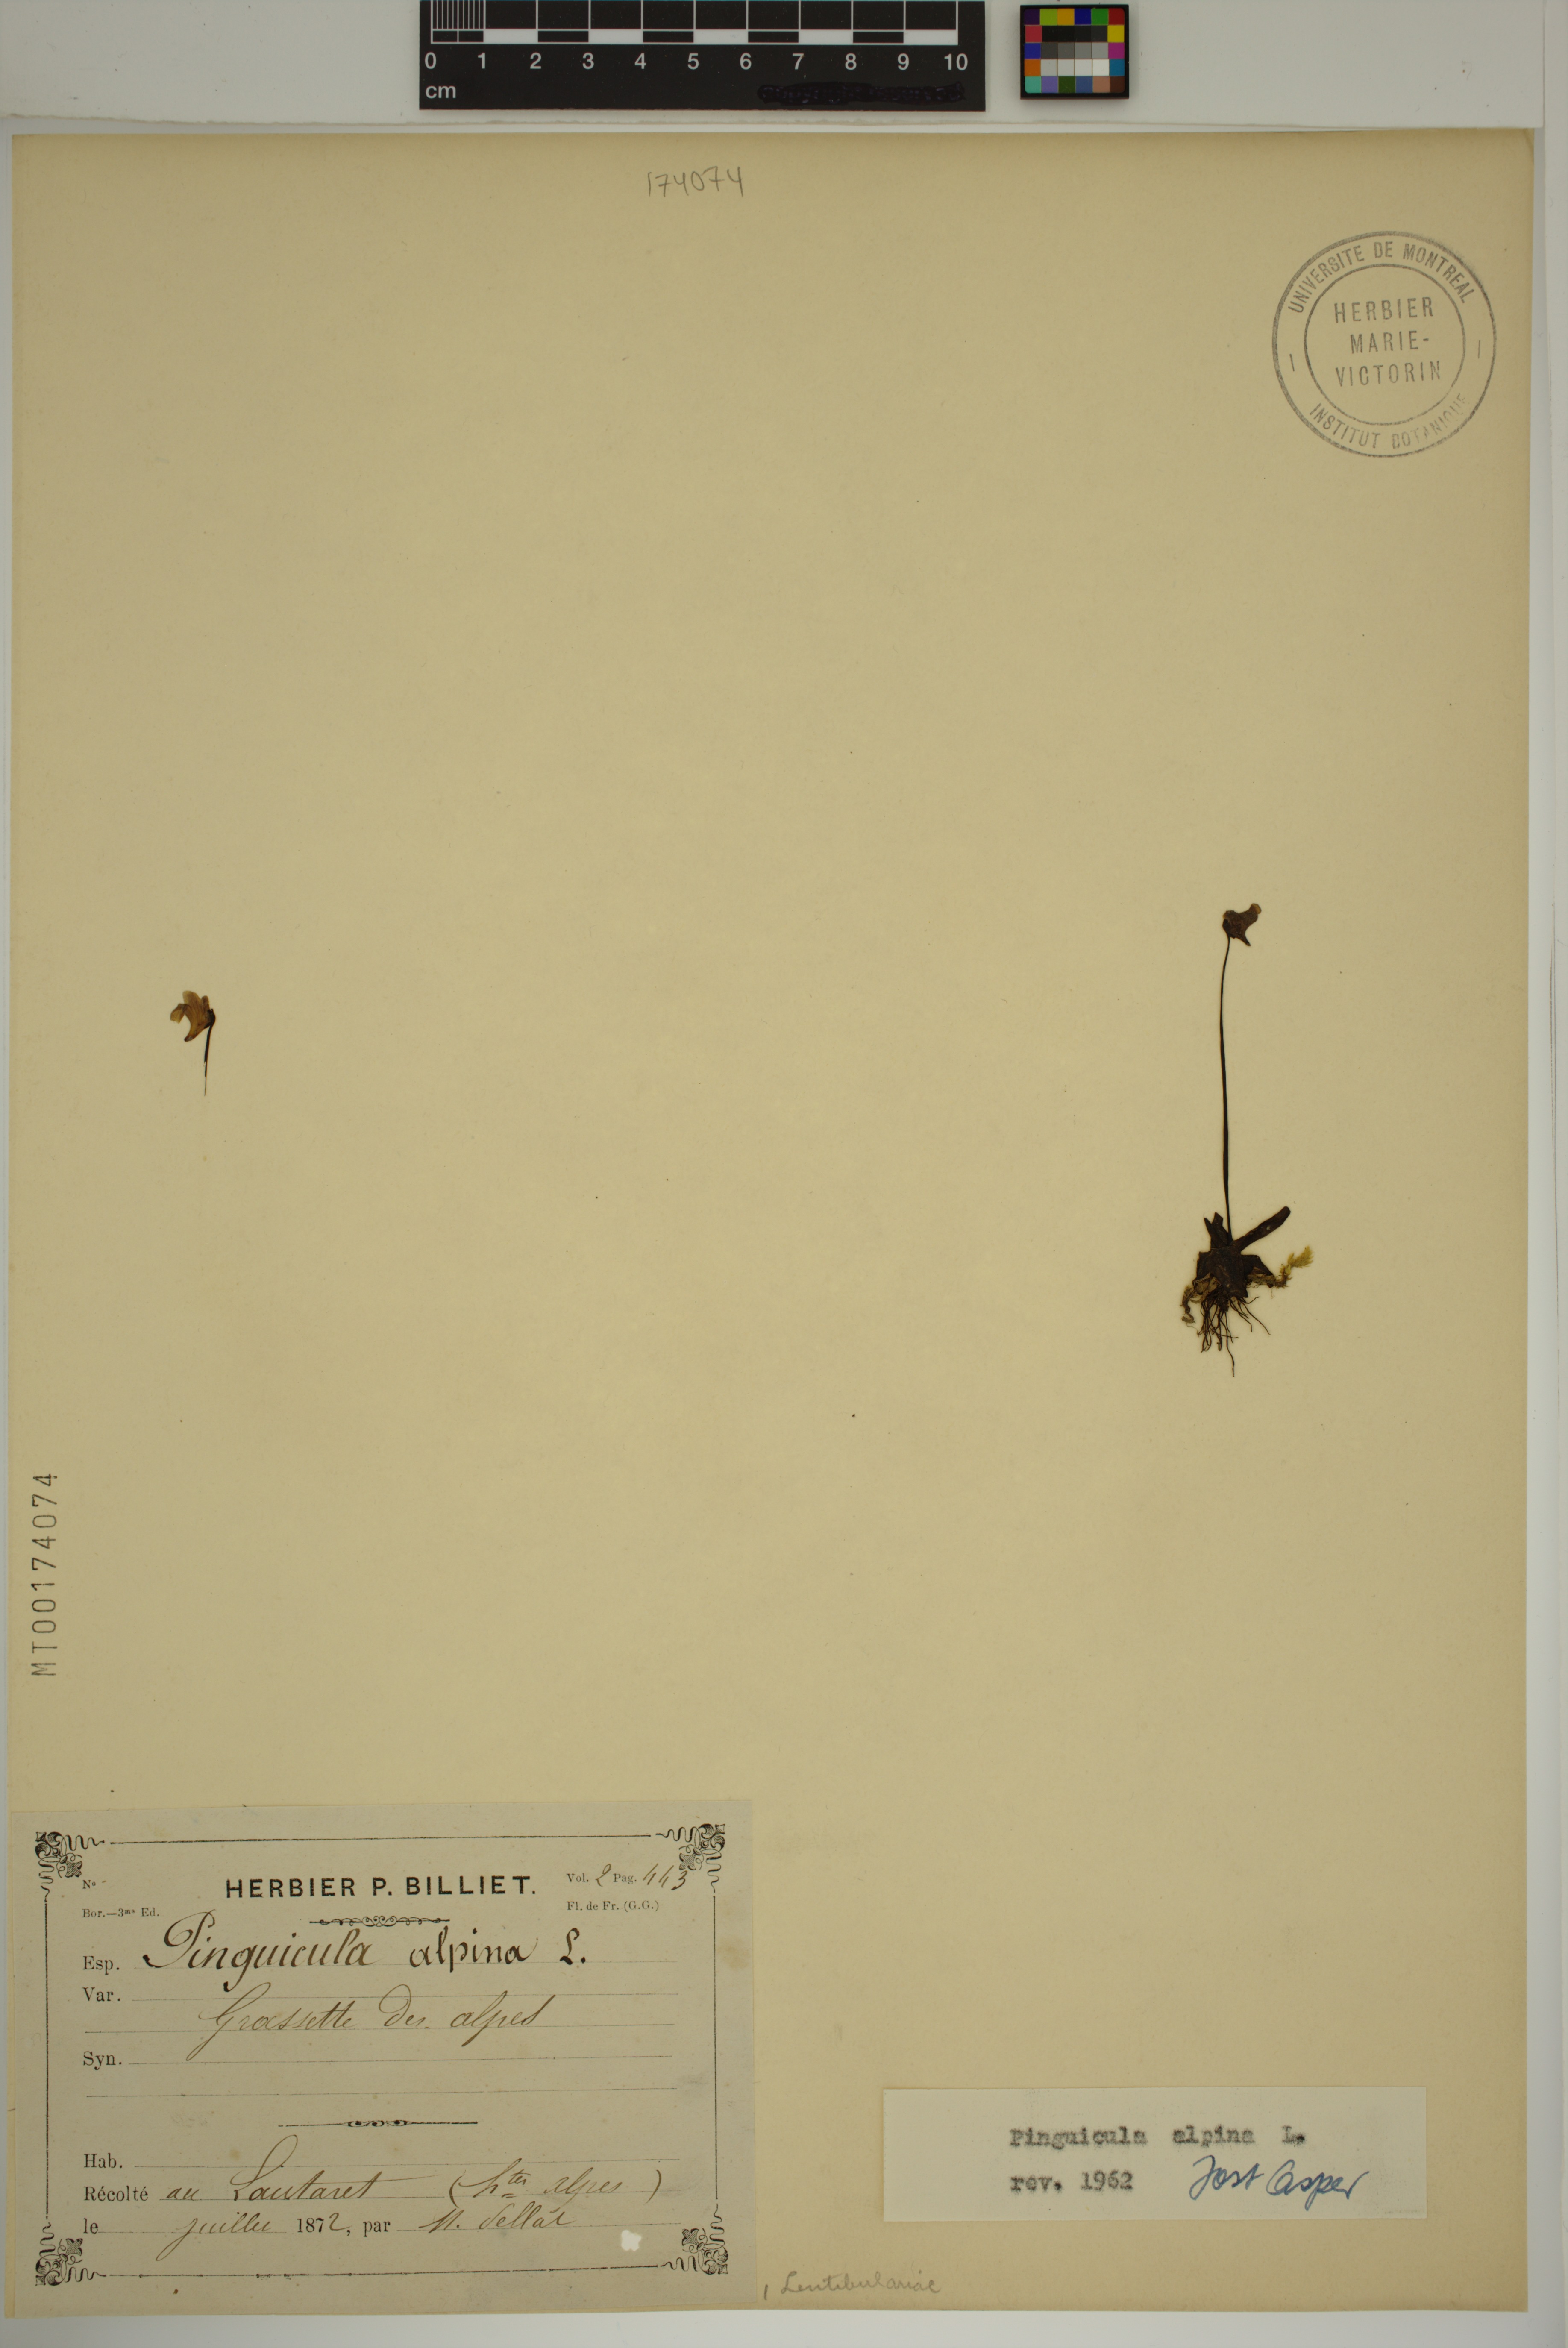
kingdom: Plantae
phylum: Tracheophyta
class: Magnoliopsida
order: Lamiales
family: Lentibulariaceae
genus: Pinguicula
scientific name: Pinguicula alpina
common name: Alpine butterwort
